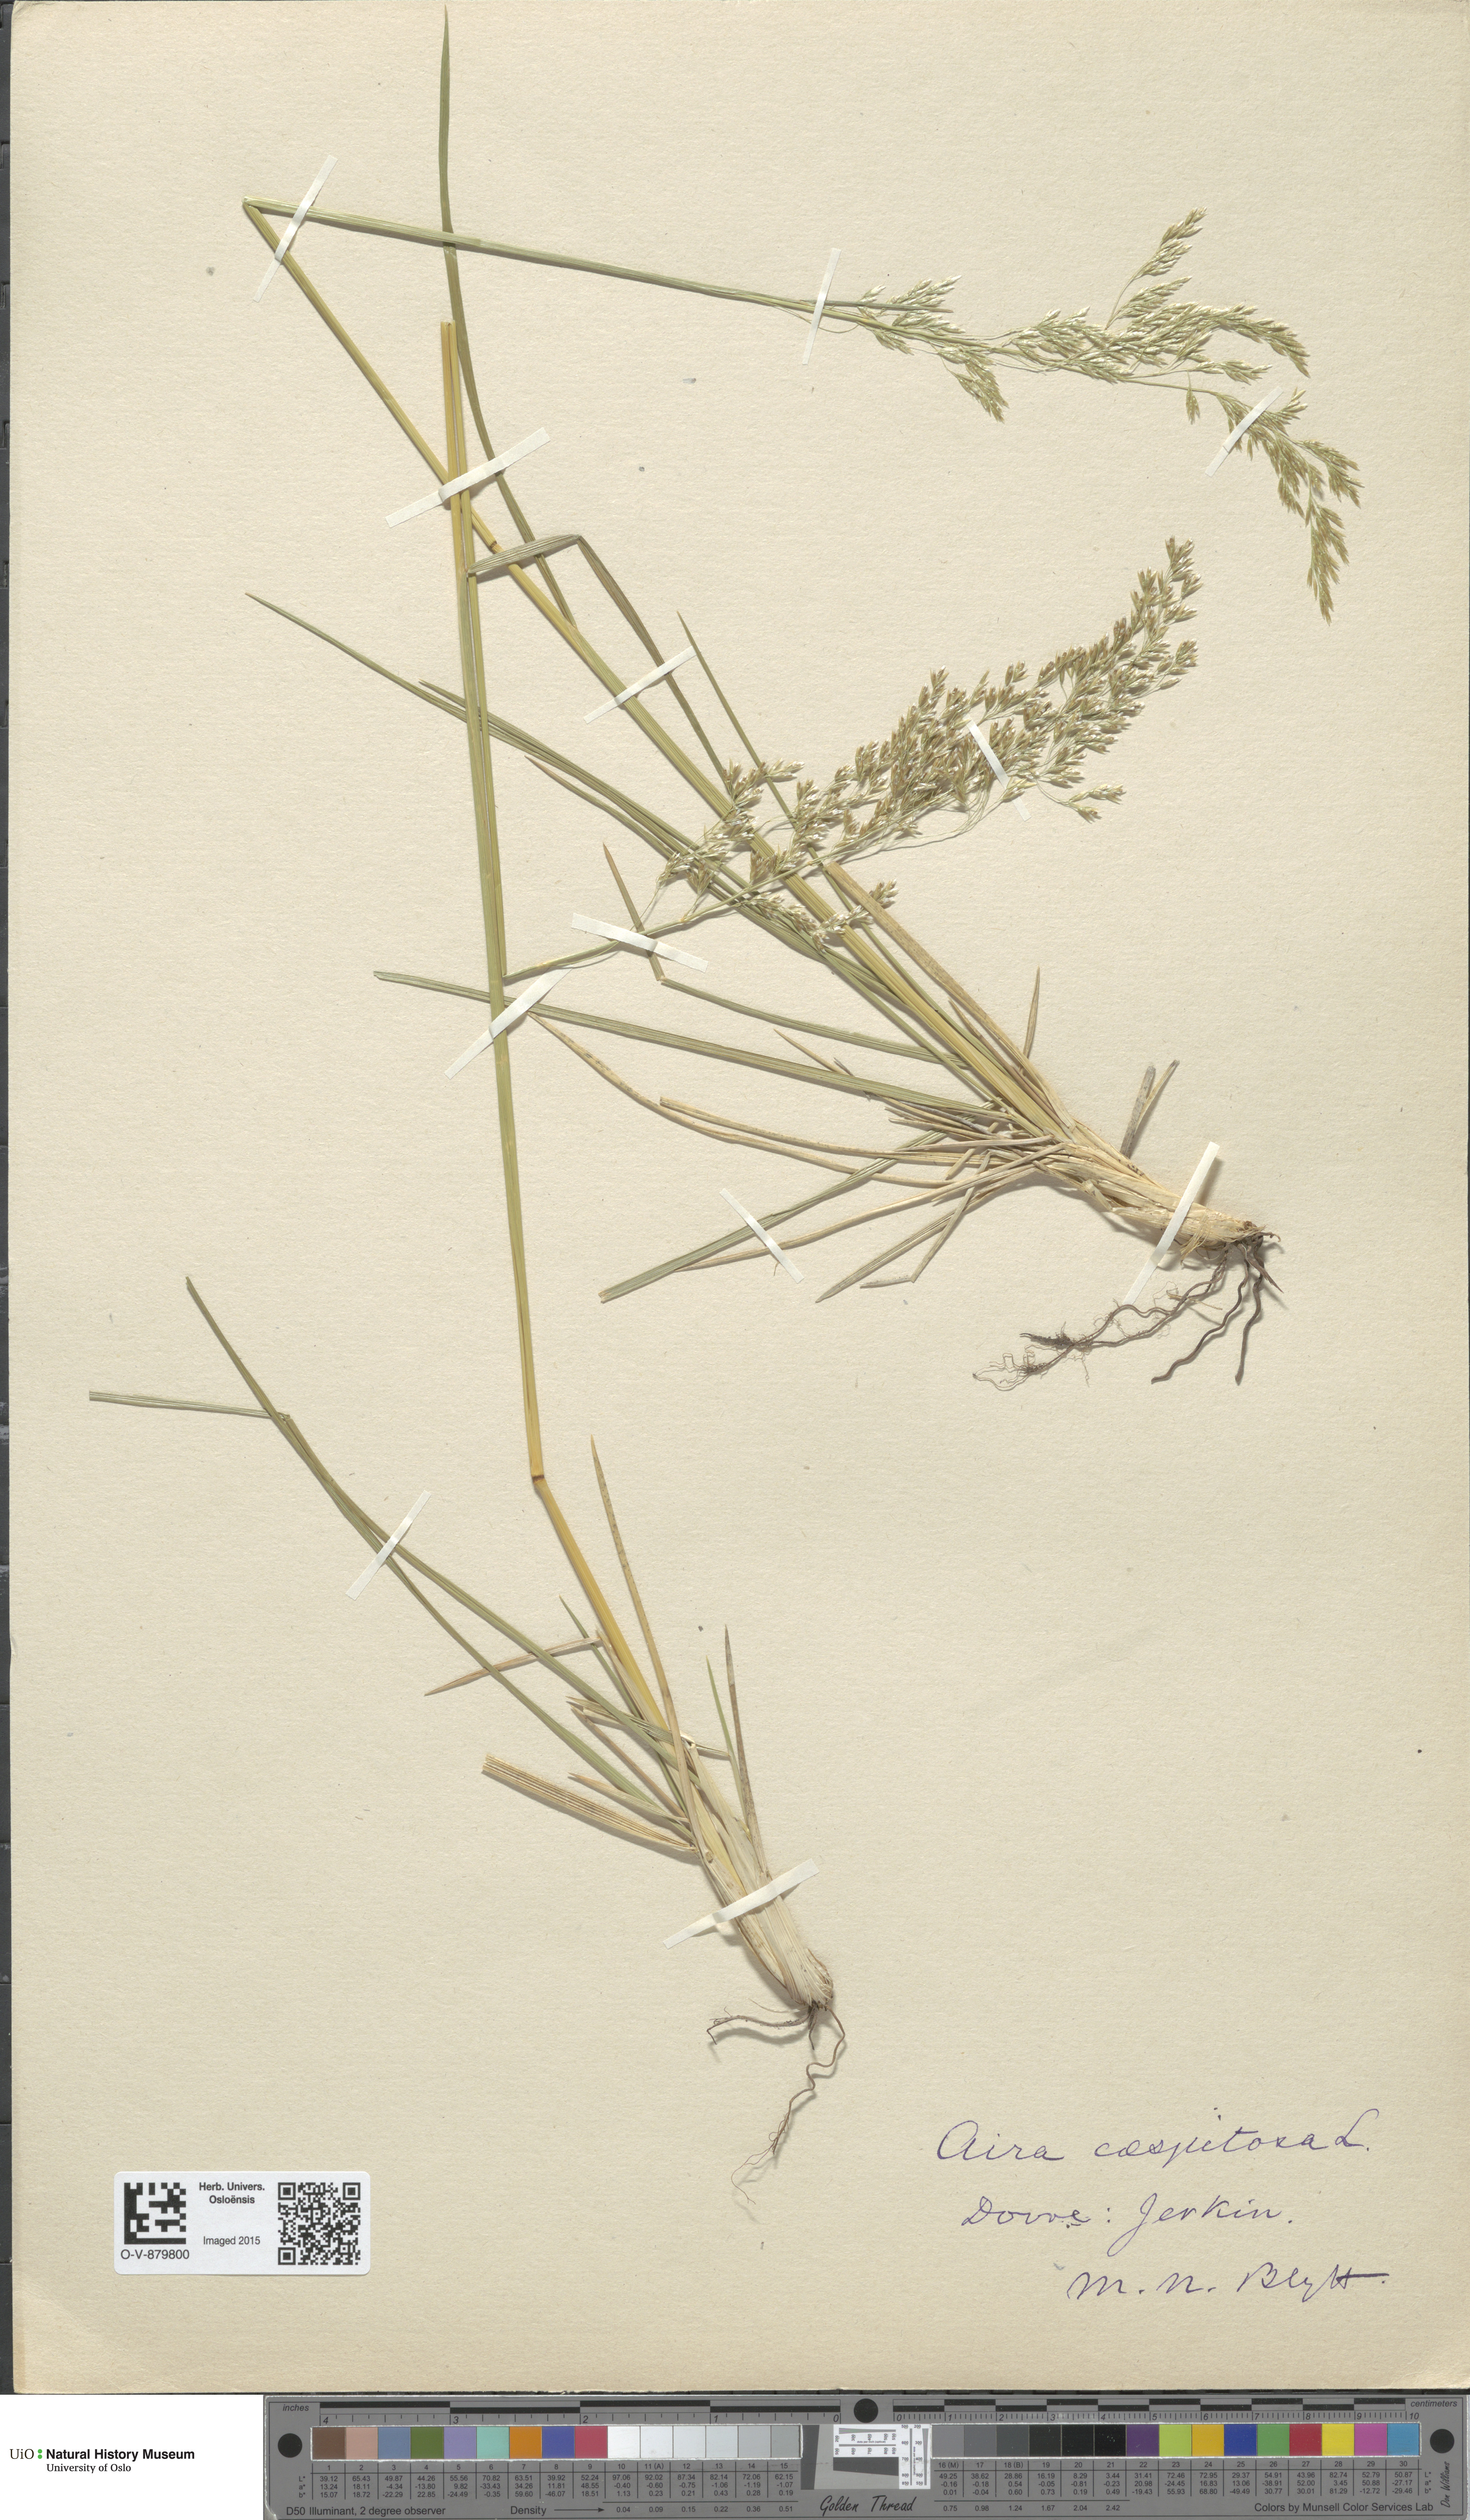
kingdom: Plantae
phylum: Tracheophyta
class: Liliopsida
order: Poales
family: Poaceae
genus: Deschampsia
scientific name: Deschampsia cespitosa
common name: Tufted hair-grass
